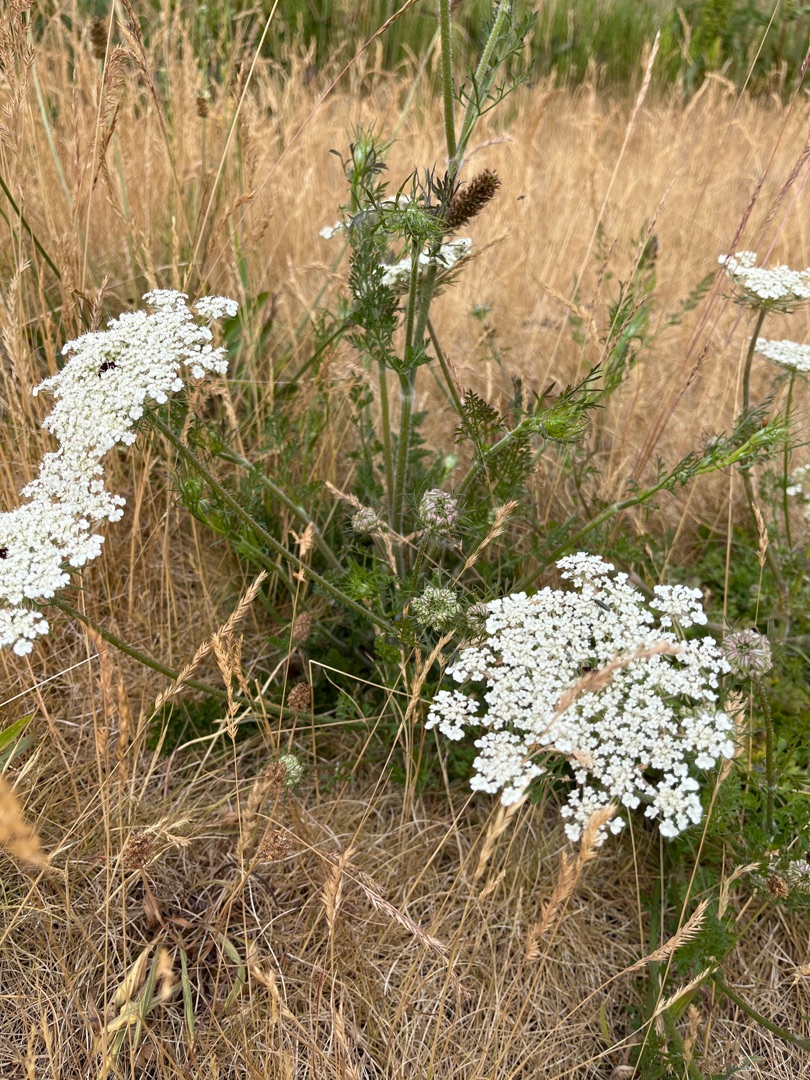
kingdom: Plantae
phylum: Tracheophyta
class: Magnoliopsida
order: Apiales
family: Apiaceae
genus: Daucus
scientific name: Daucus carota
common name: Gulerod
